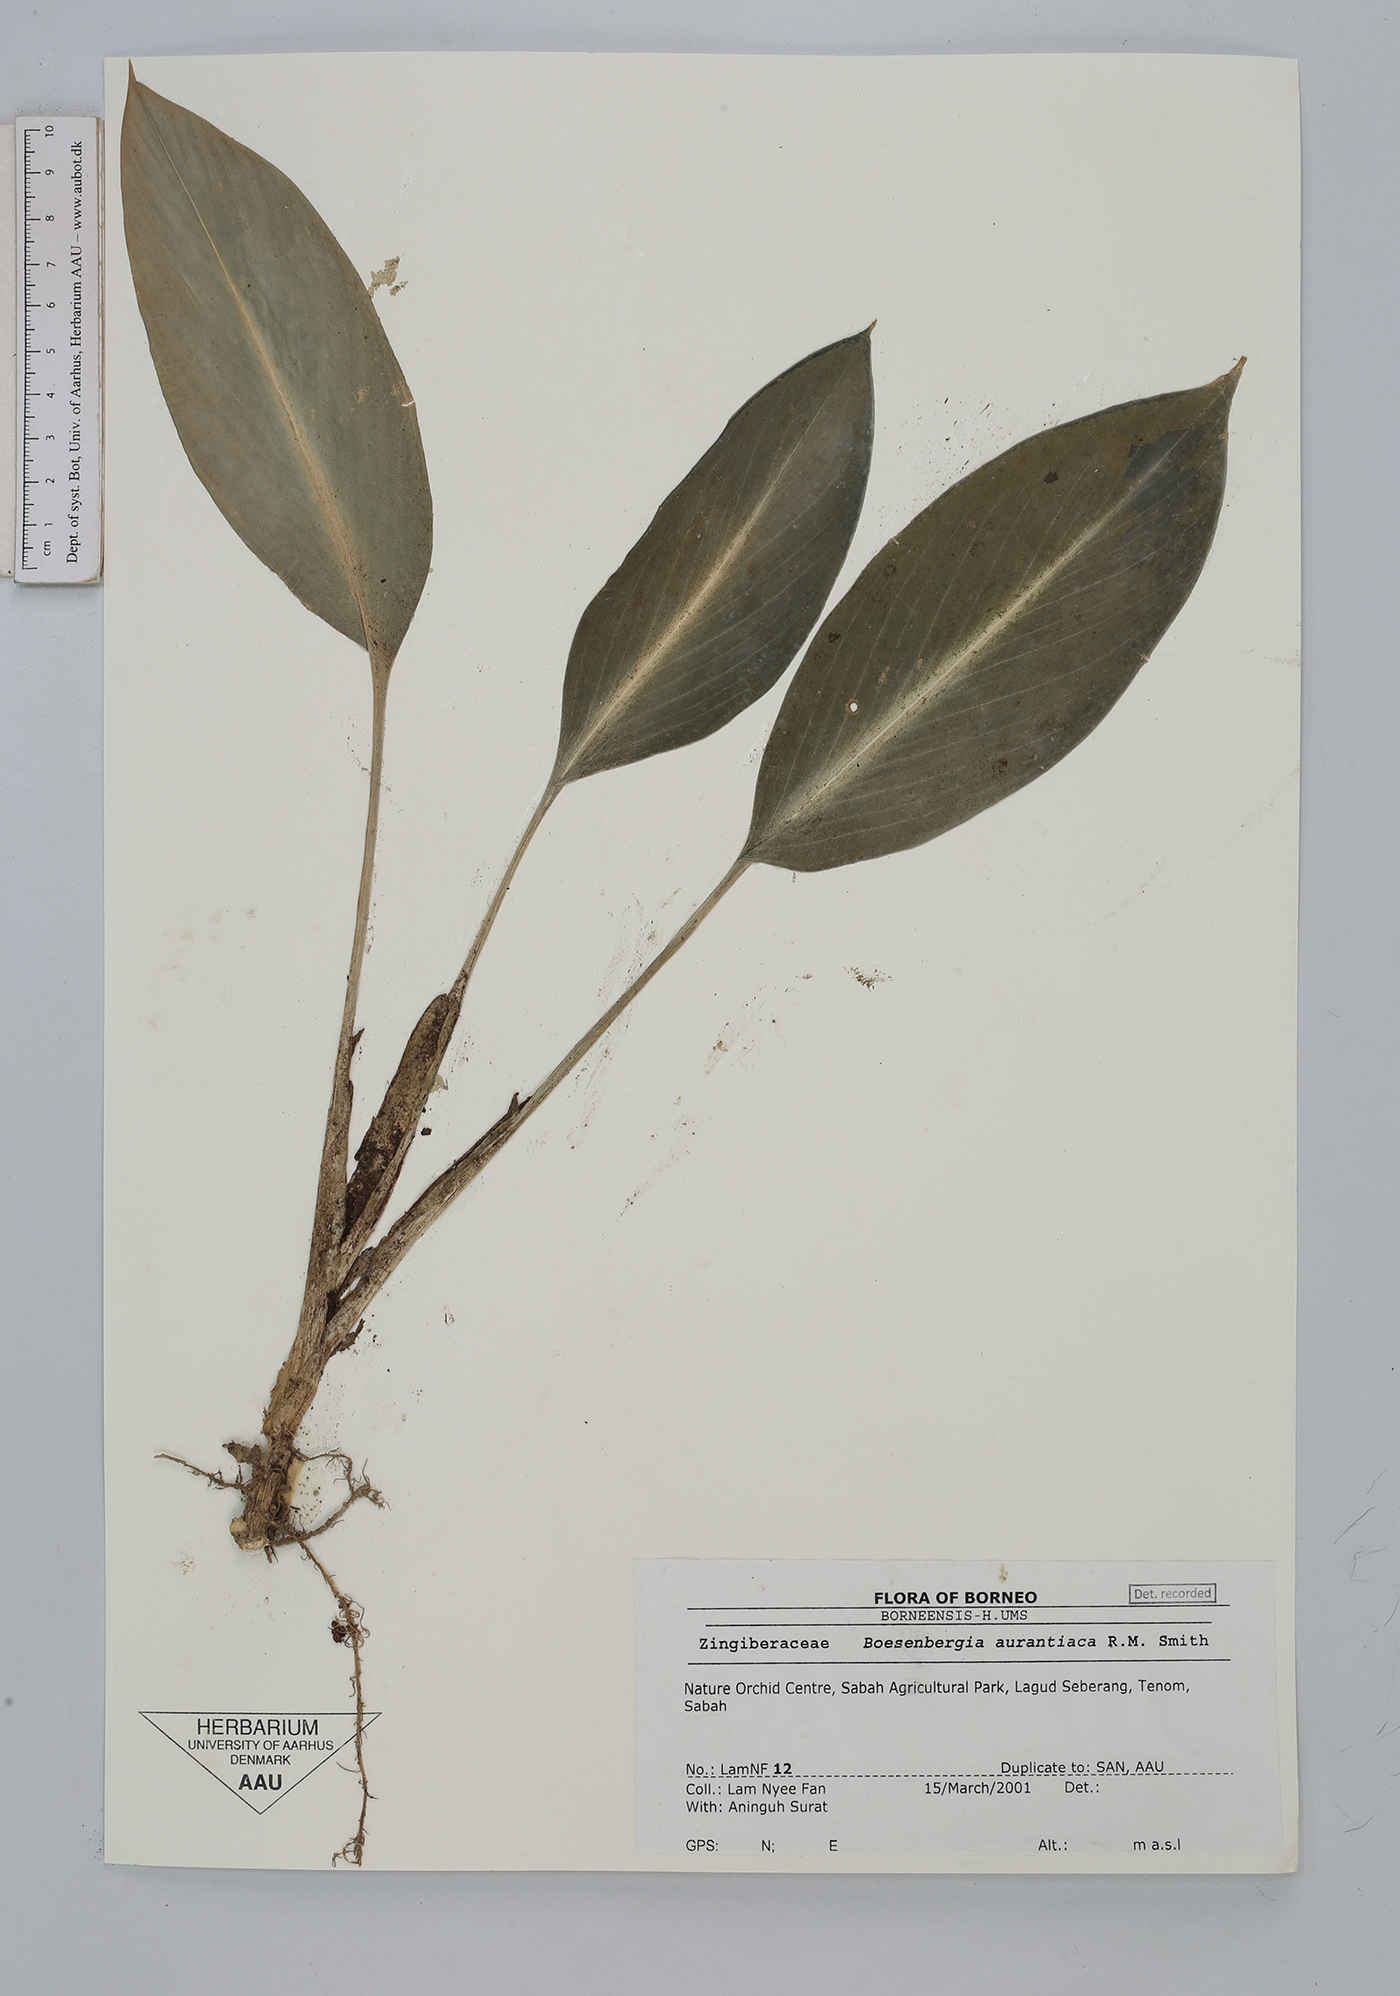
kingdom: Plantae
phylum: Tracheophyta
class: Liliopsida
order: Zingiberales
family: Zingiberaceae
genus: Boesenbergia
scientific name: Boesenbergia aurantiaca
